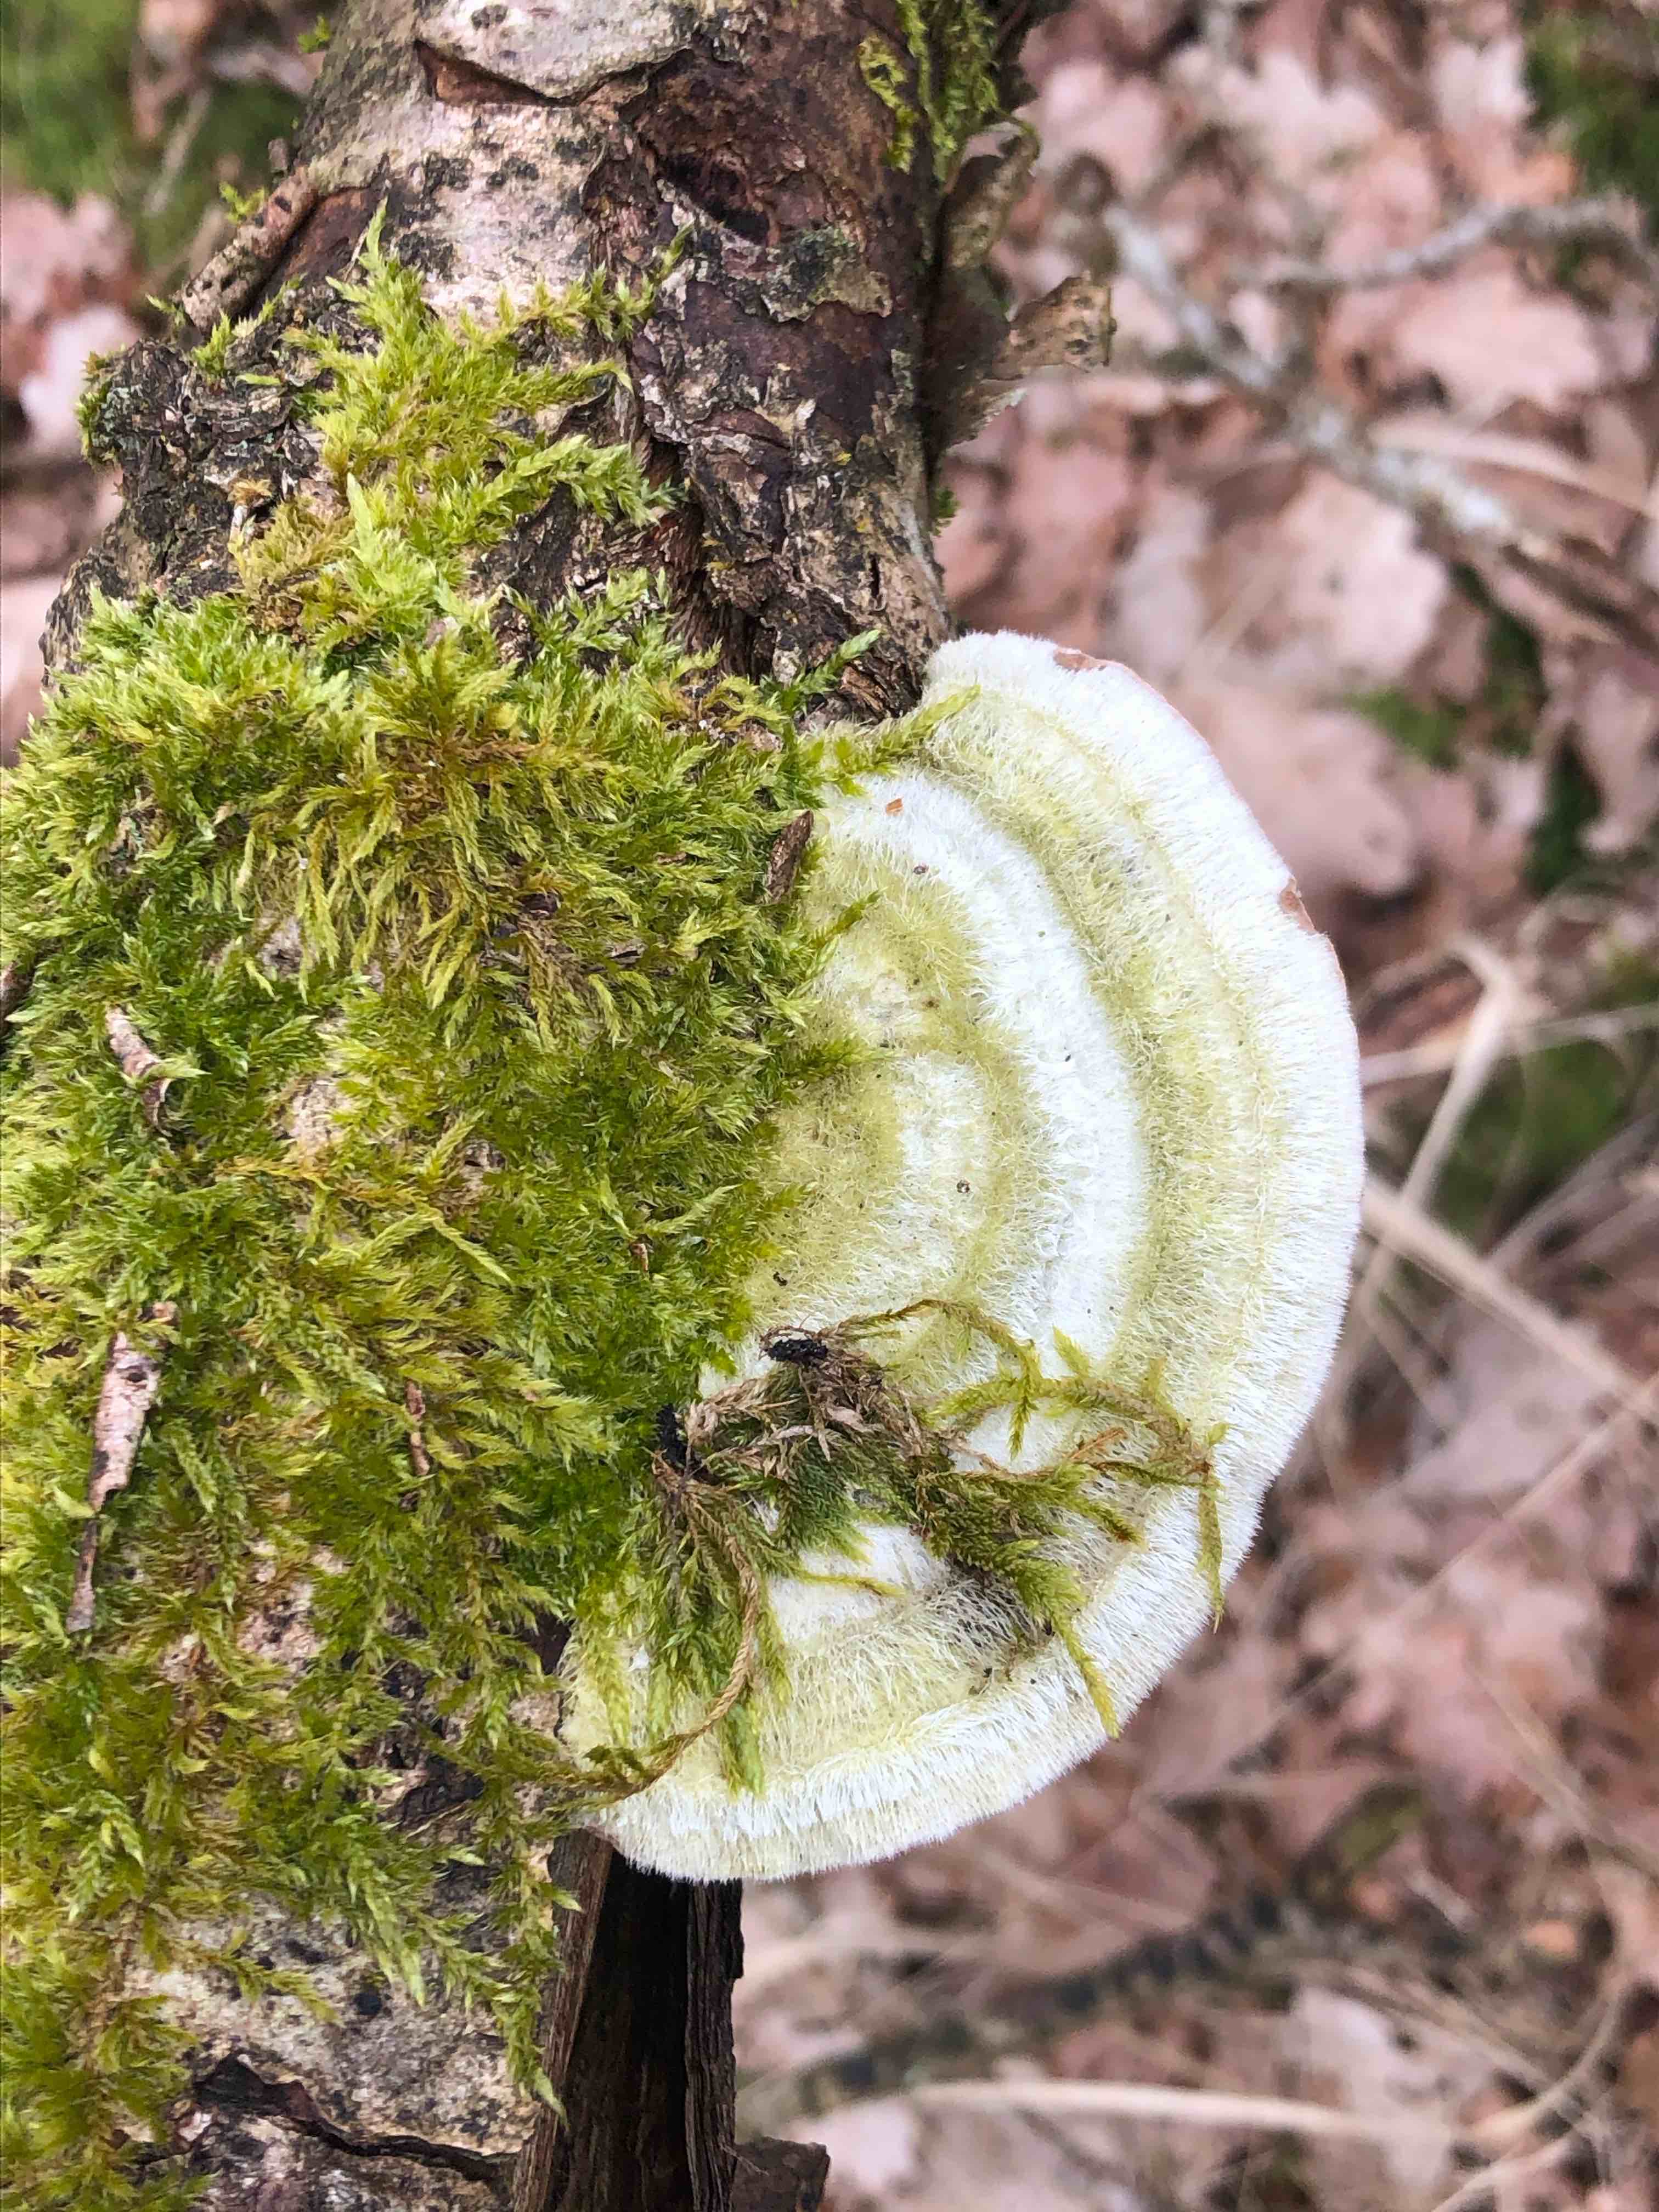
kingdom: Fungi
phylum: Basidiomycota
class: Agaricomycetes
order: Polyporales
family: Polyporaceae
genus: Trametes
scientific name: Trametes hirsuta
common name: håret læderporesvamp
